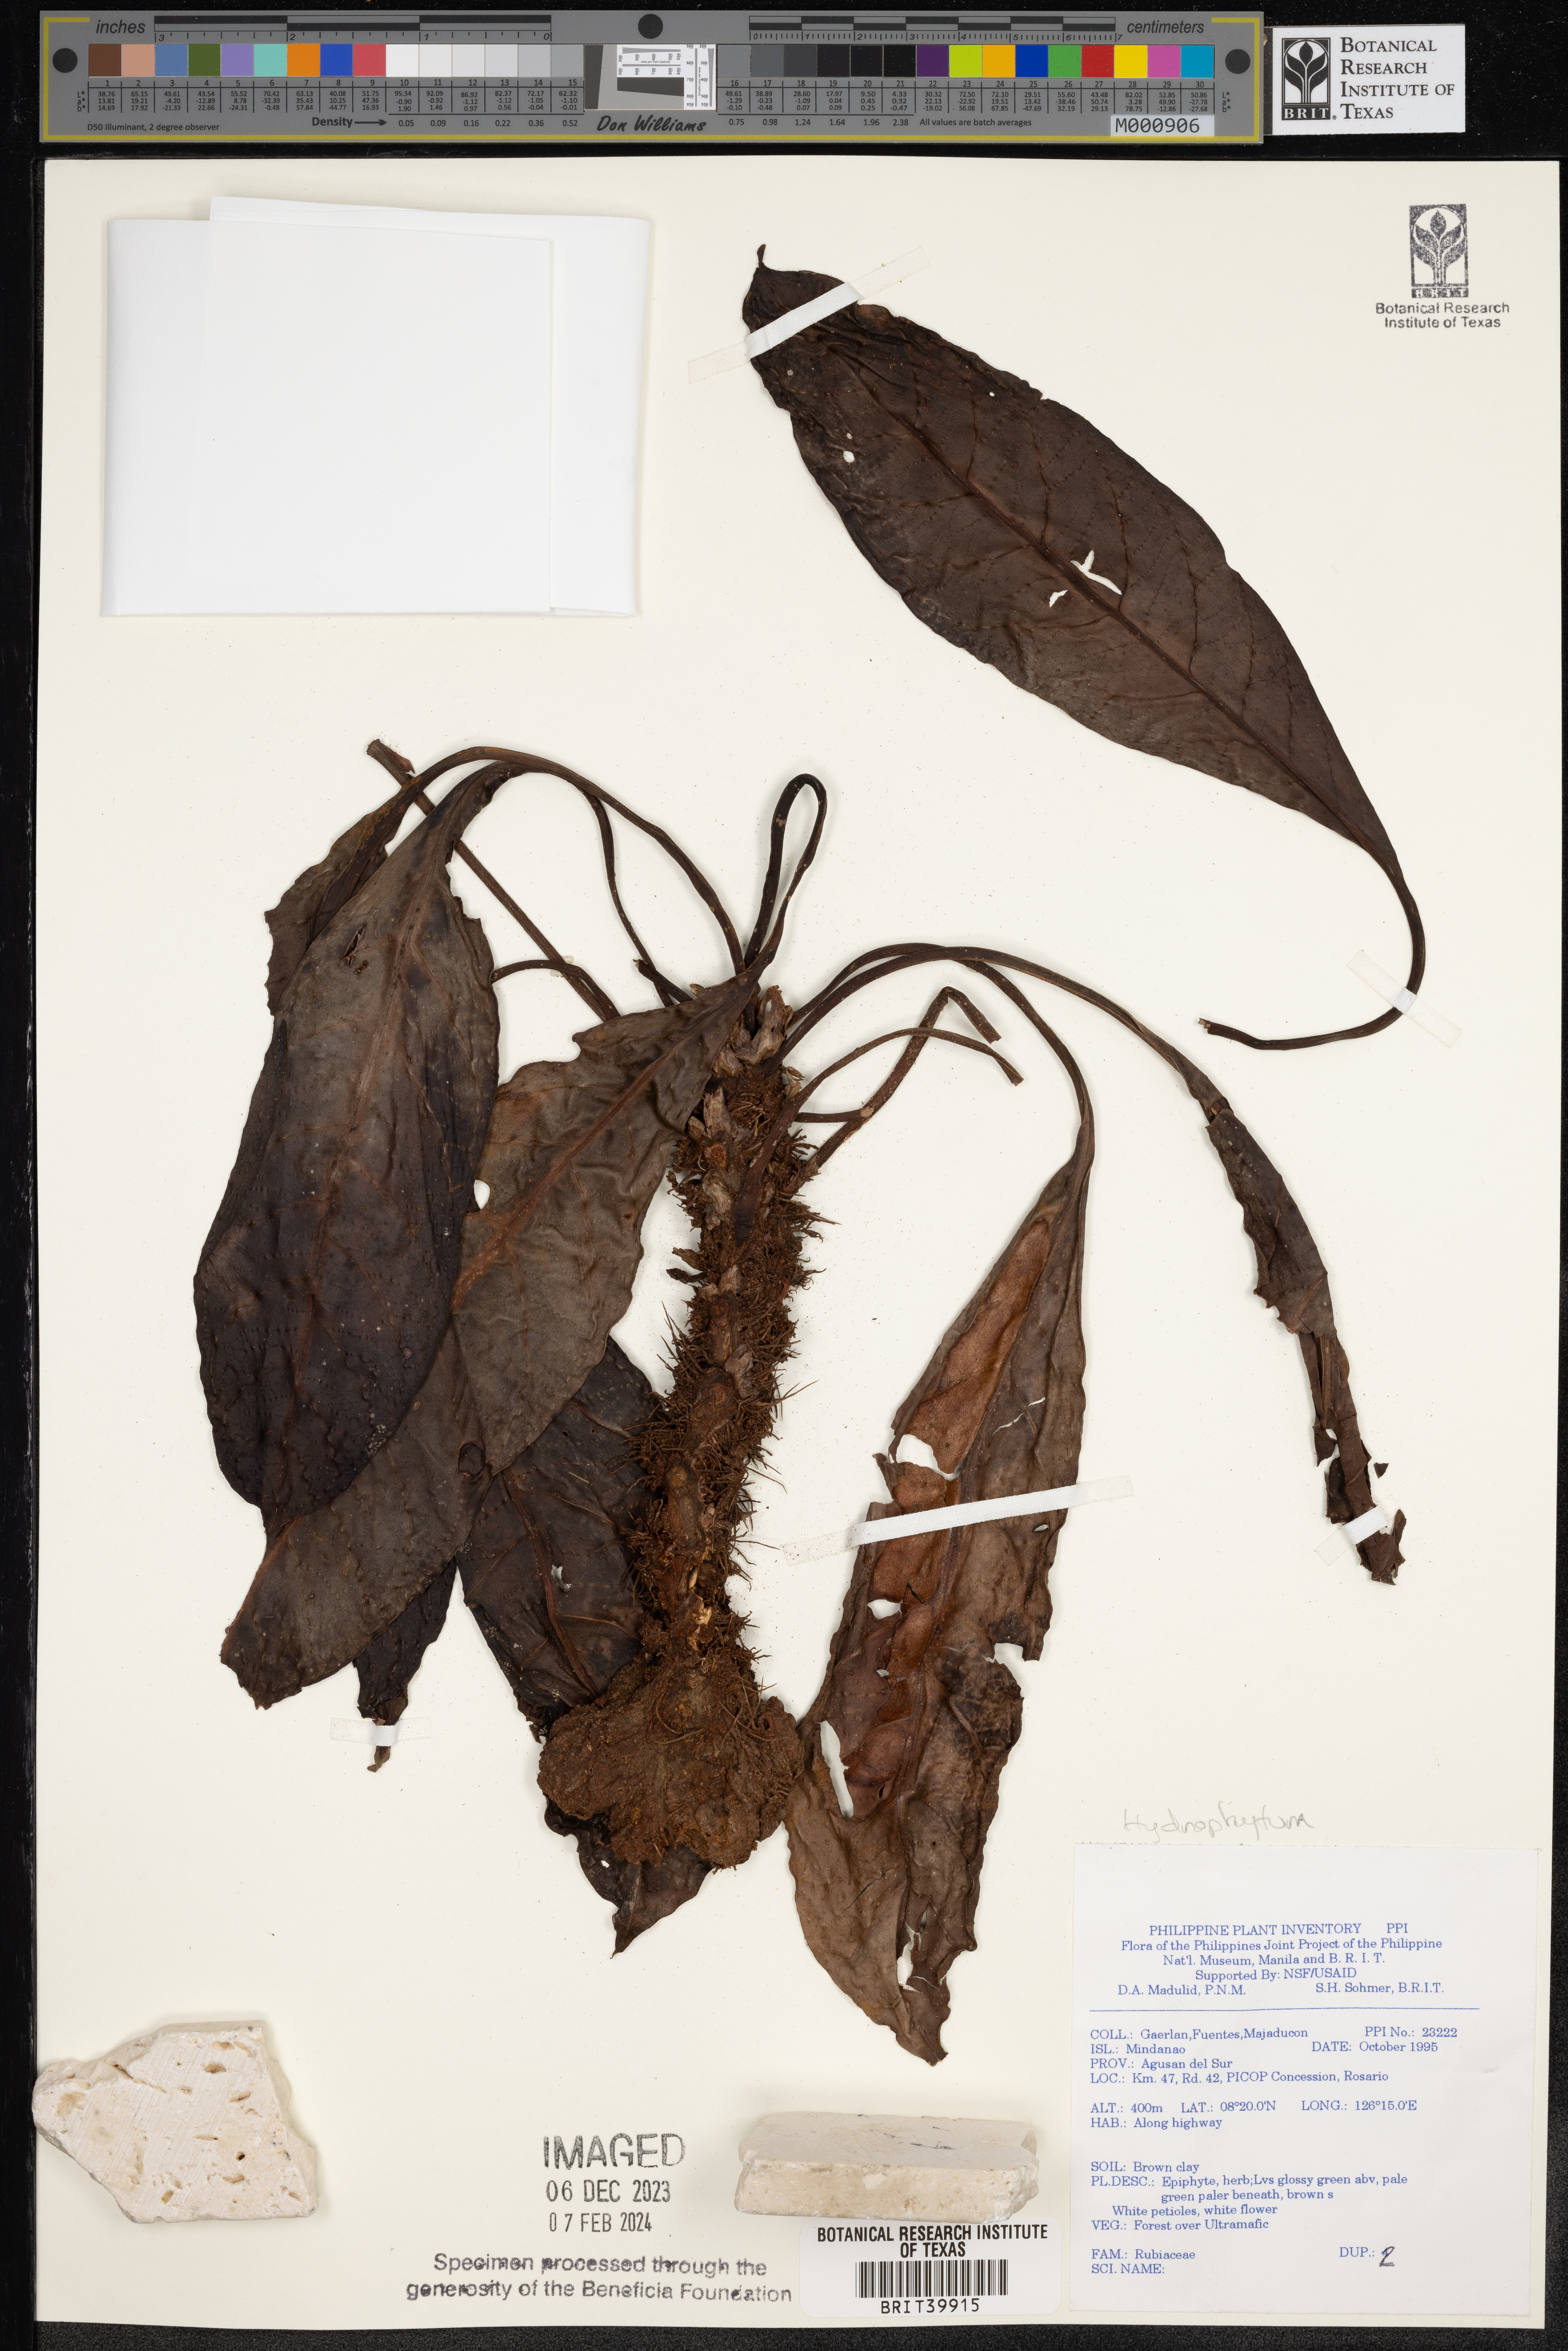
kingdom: Plantae
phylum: Tracheophyta
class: Magnoliopsida
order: Gentianales
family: Rubiaceae
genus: Hydnophytum
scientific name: Hydnophytum
